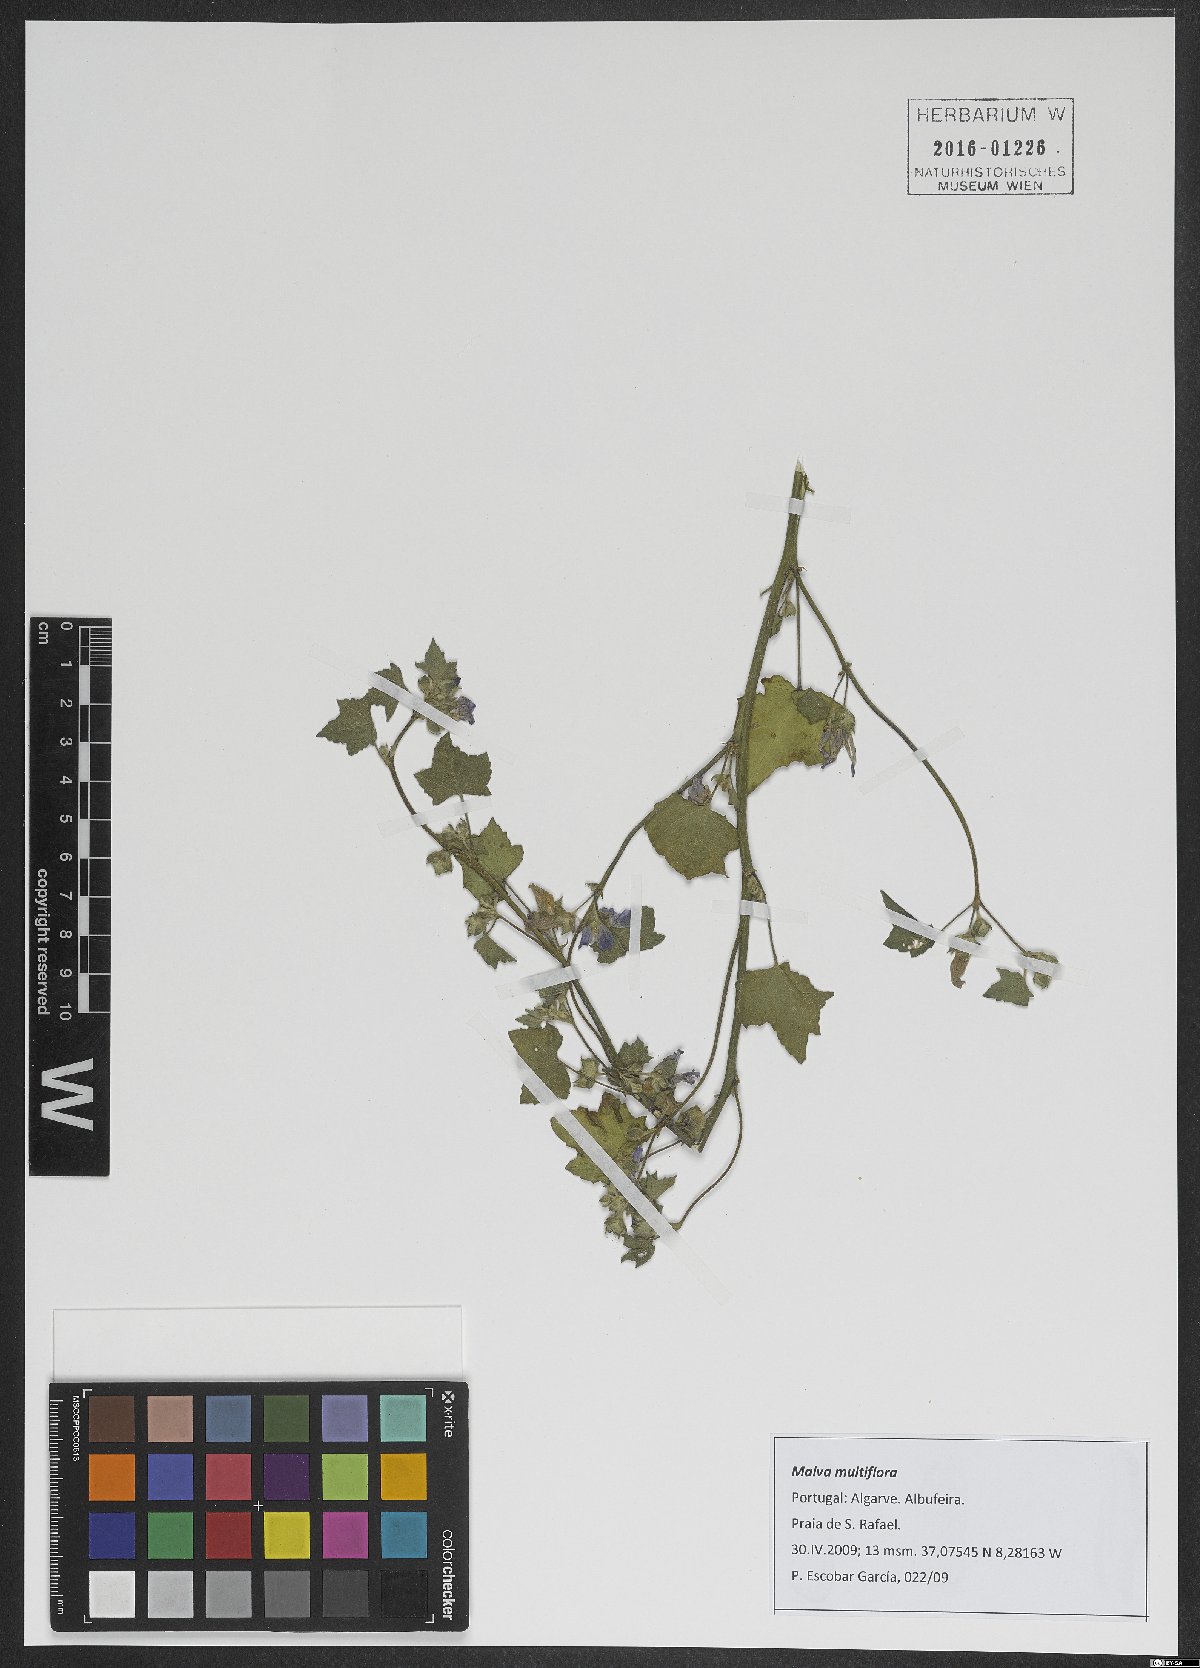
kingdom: Plantae
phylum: Tracheophyta
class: Magnoliopsida
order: Malvales
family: Malvaceae
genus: Malva
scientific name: Malva multiflora
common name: Cheeseweed
